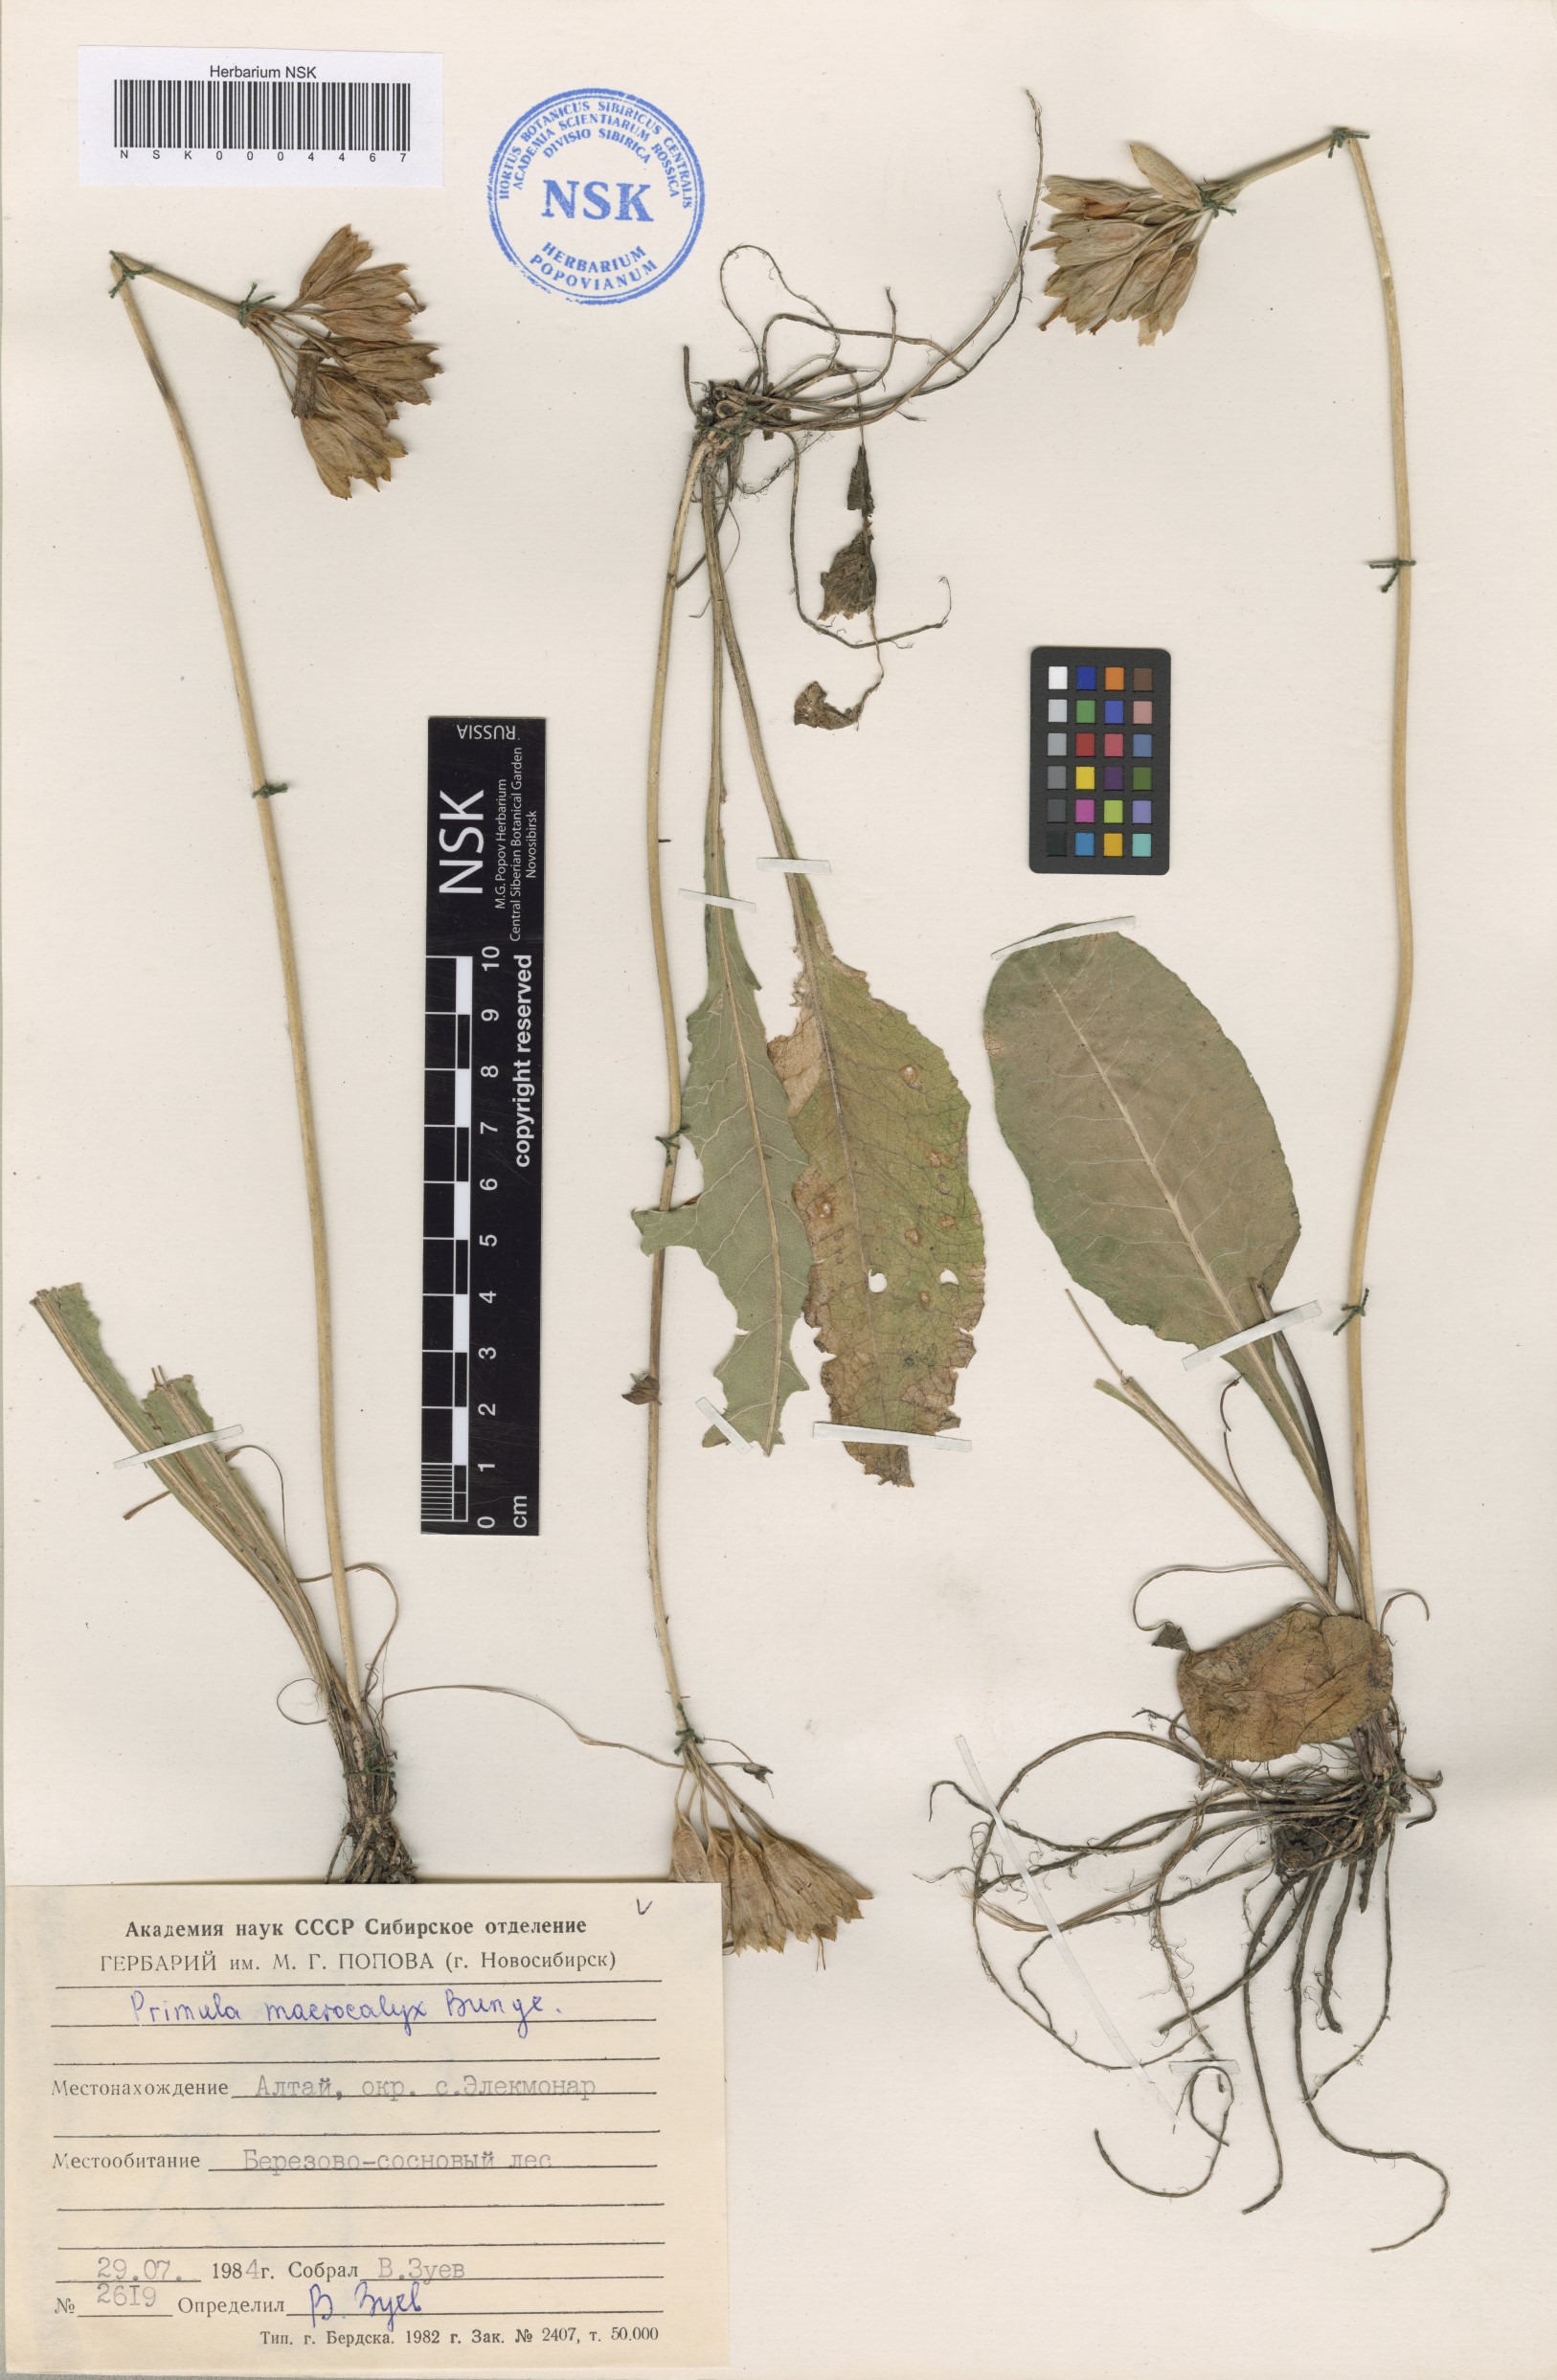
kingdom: Plantae
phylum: Tracheophyta
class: Magnoliopsida
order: Ericales
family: Primulaceae
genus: Primula
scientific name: Primula veris
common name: Cowslip
